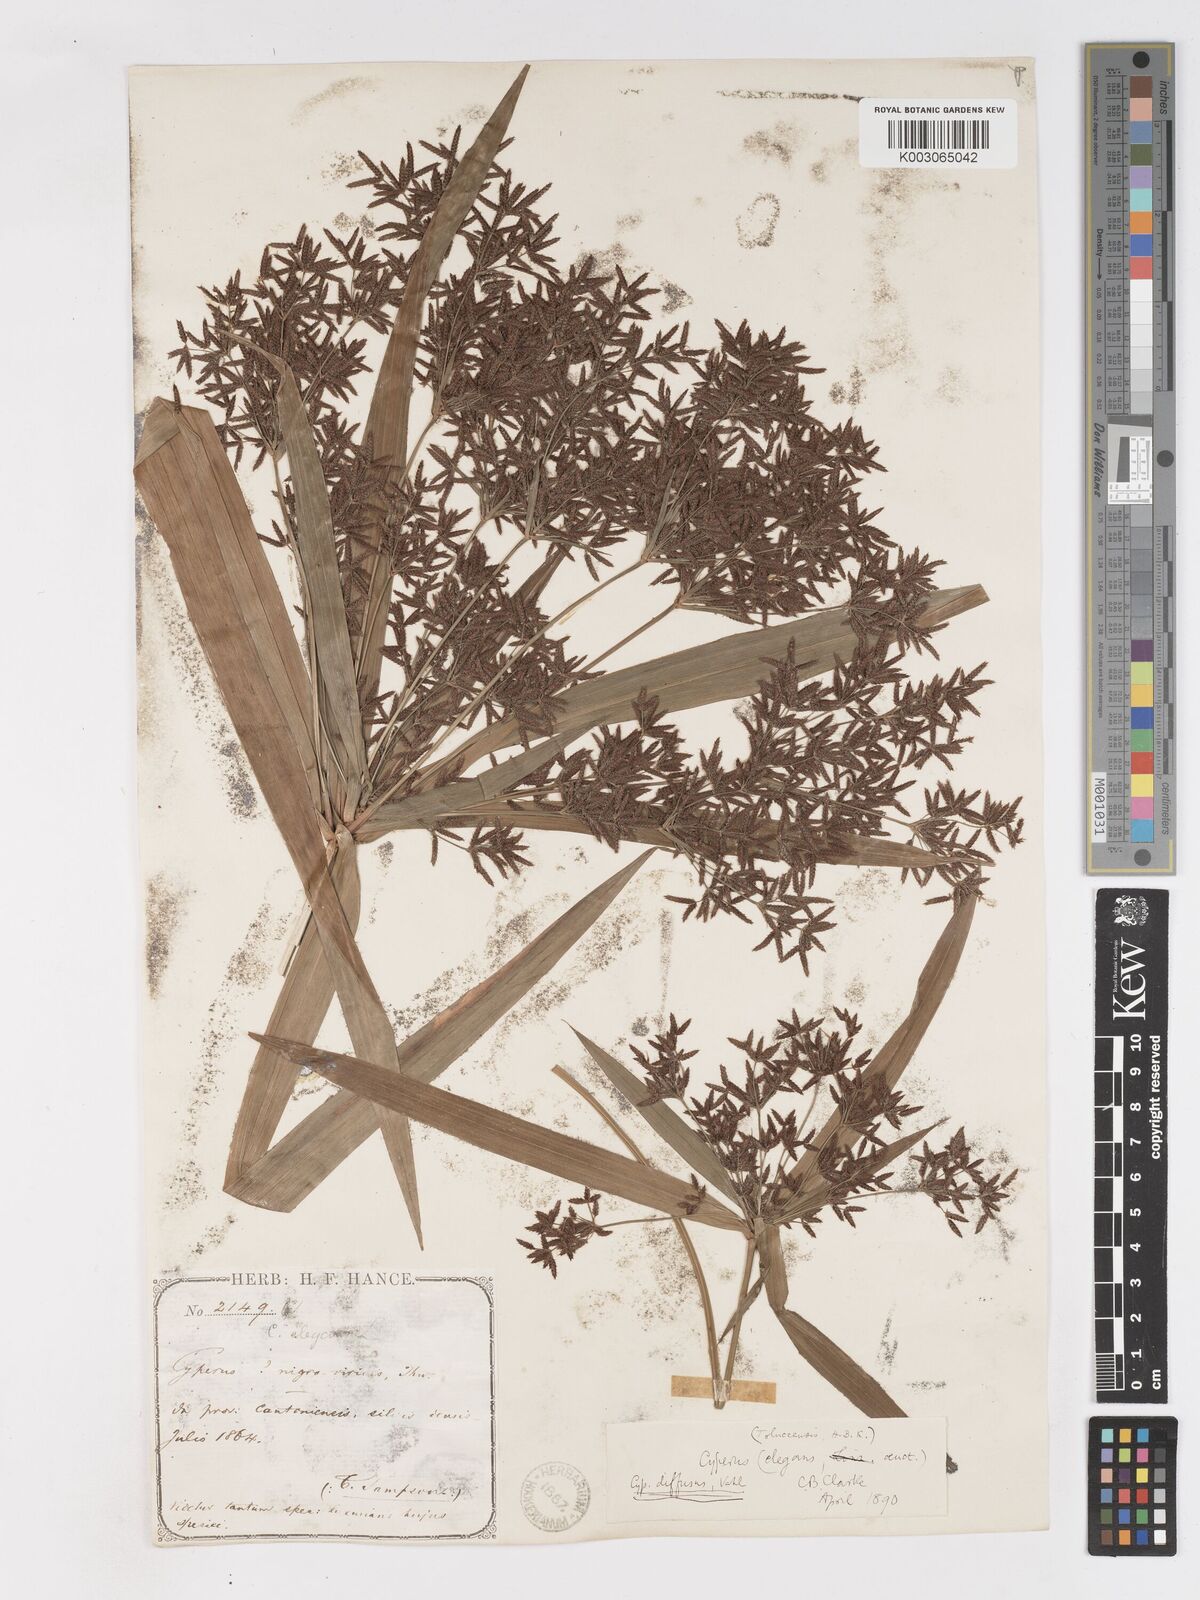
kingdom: Plantae
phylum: Tracheophyta
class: Liliopsida
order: Poales
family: Cyperaceae
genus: Cyperus
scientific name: Cyperus diffusus
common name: Dwarf umbrella grass
